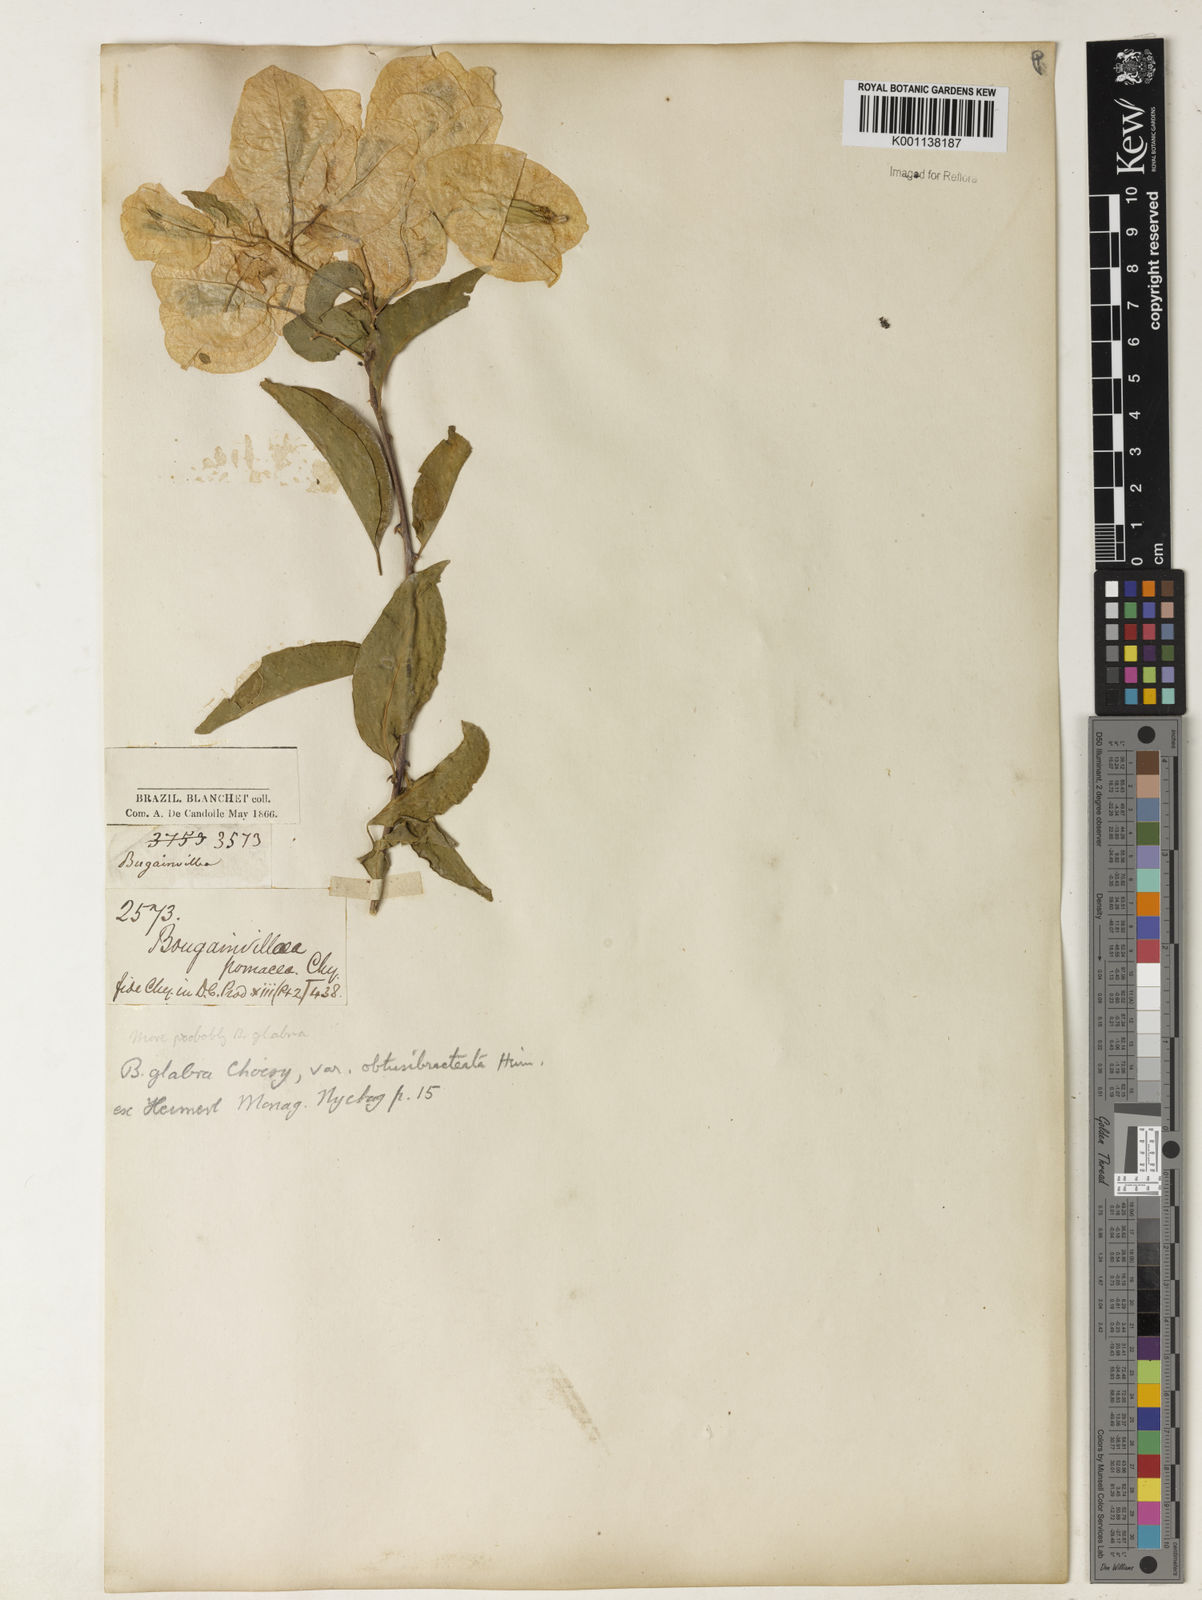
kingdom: Plantae
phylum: Tracheophyta
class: Magnoliopsida
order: Caryophyllales
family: Nyctaginaceae
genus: Bougainvillea
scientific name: Bougainvillea glabra
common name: Paperflower
